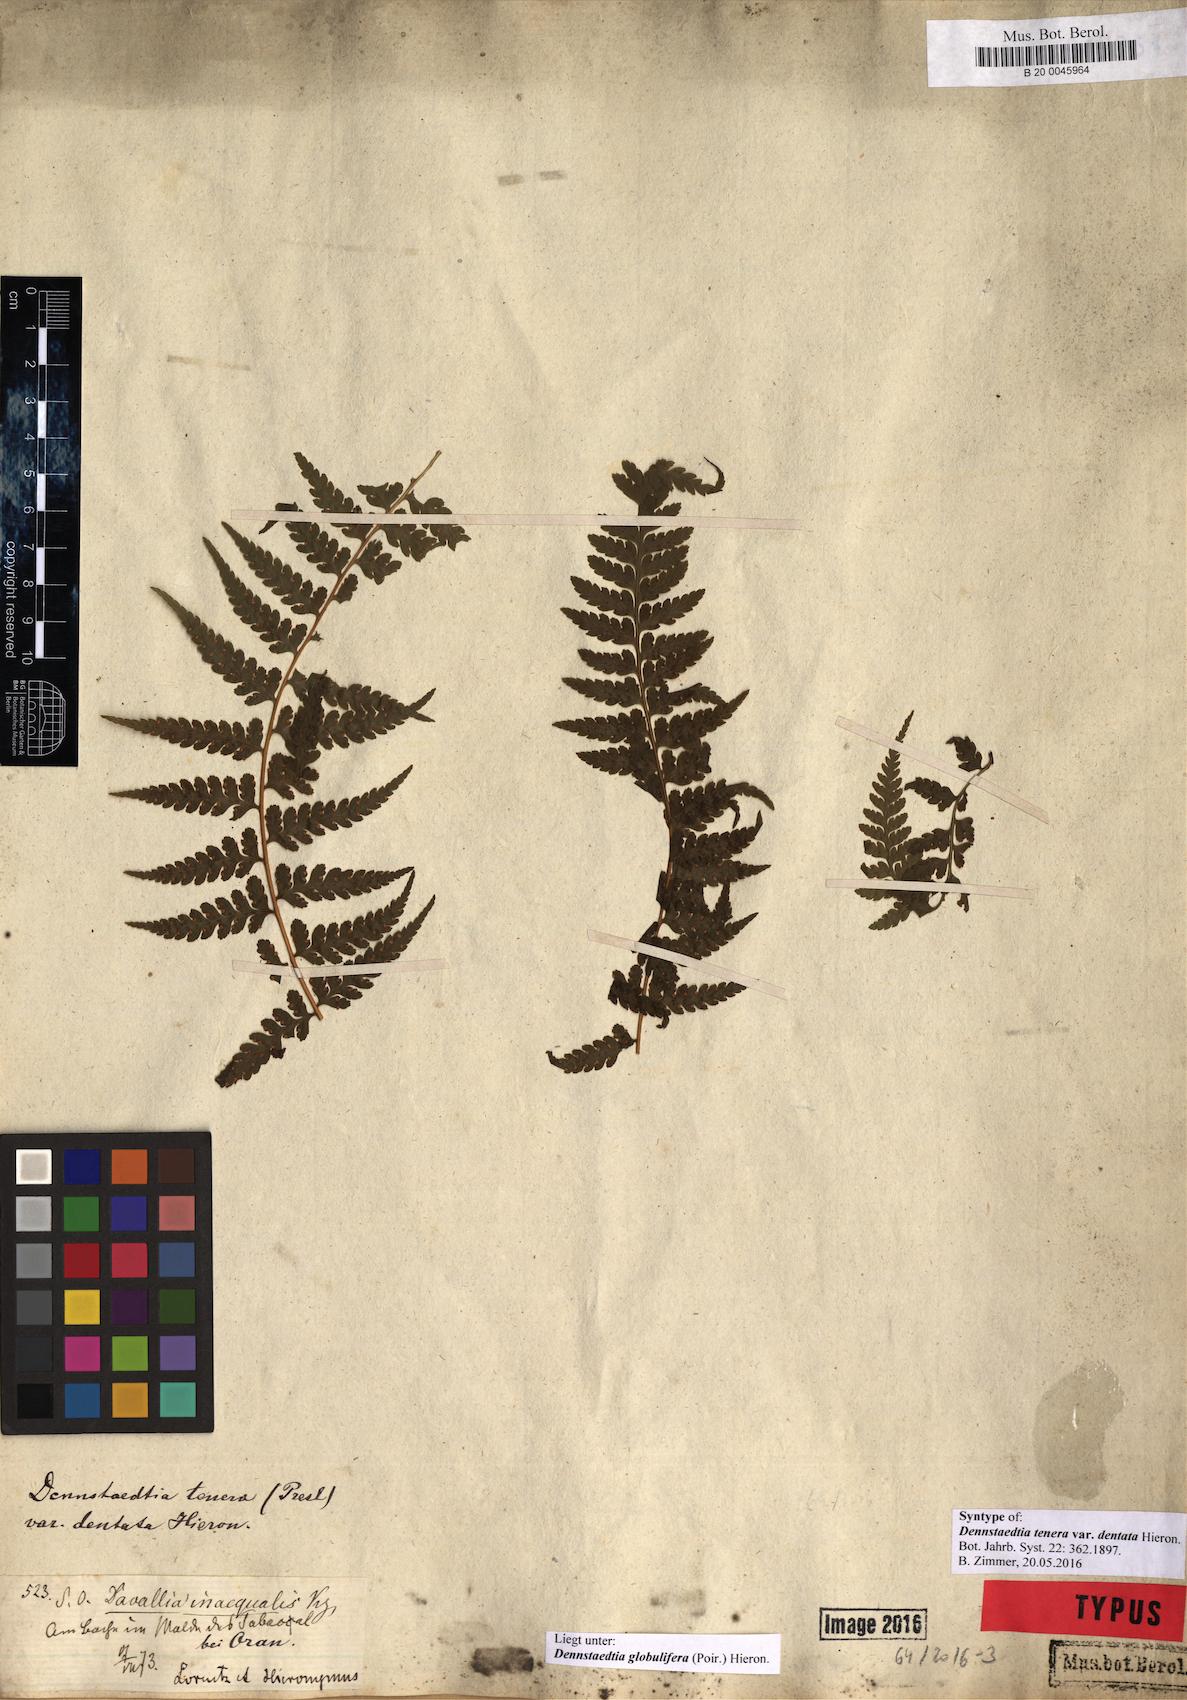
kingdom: Plantae
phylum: Tracheophyta
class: Polypodiopsida
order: Polypodiales
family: Dennstaedtiaceae
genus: Mucura
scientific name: Mucura globulifera
